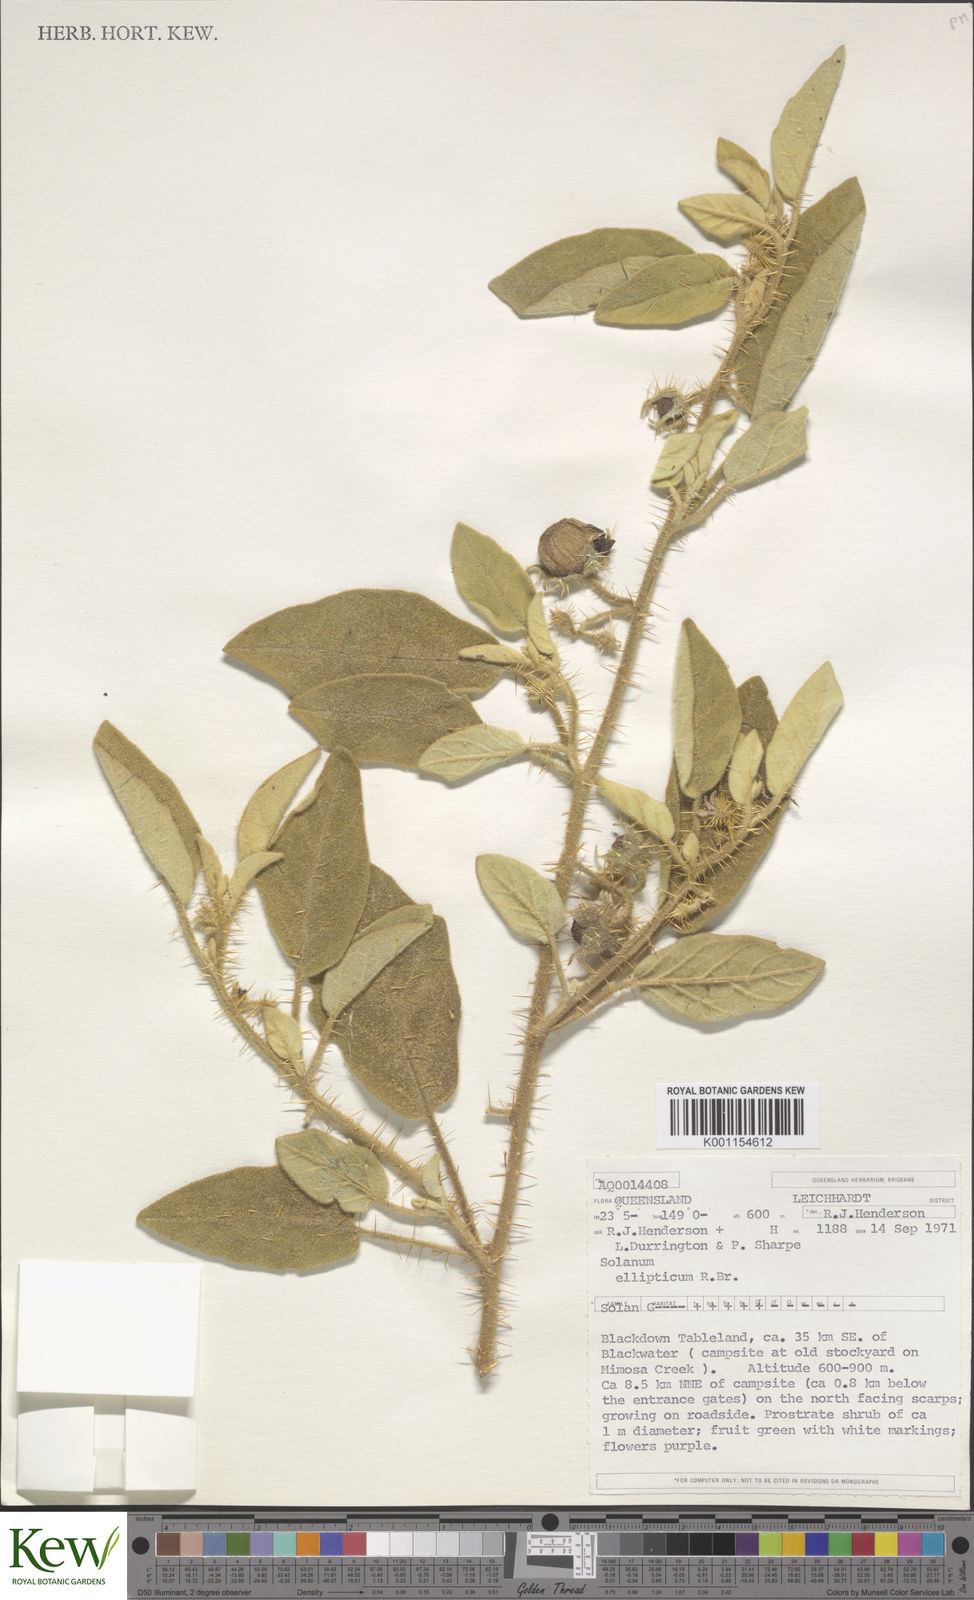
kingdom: Plantae
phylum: Tracheophyta
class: Magnoliopsida
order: Solanales
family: Solanaceae
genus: Solanum
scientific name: Solanum ellipticum
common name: Potato-bush
